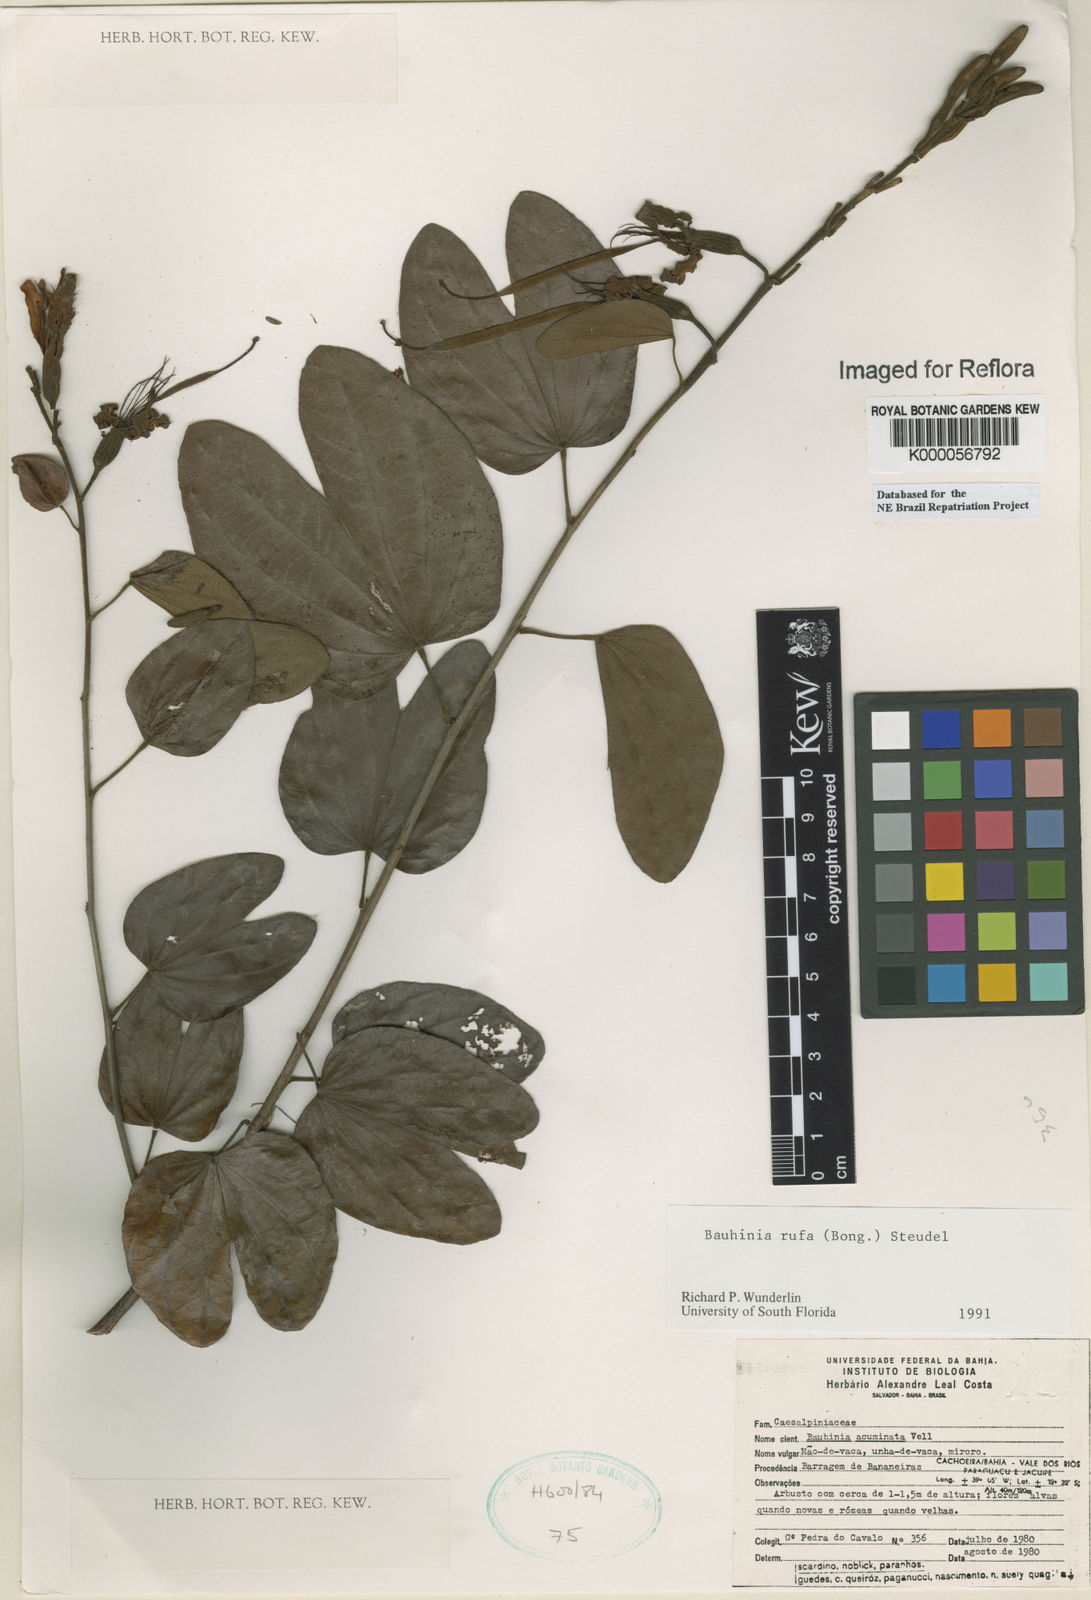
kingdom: Plantae
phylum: Tracheophyta
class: Magnoliopsida
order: Fabales
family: Fabaceae
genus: Bauhinia
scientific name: Bauhinia rufa
